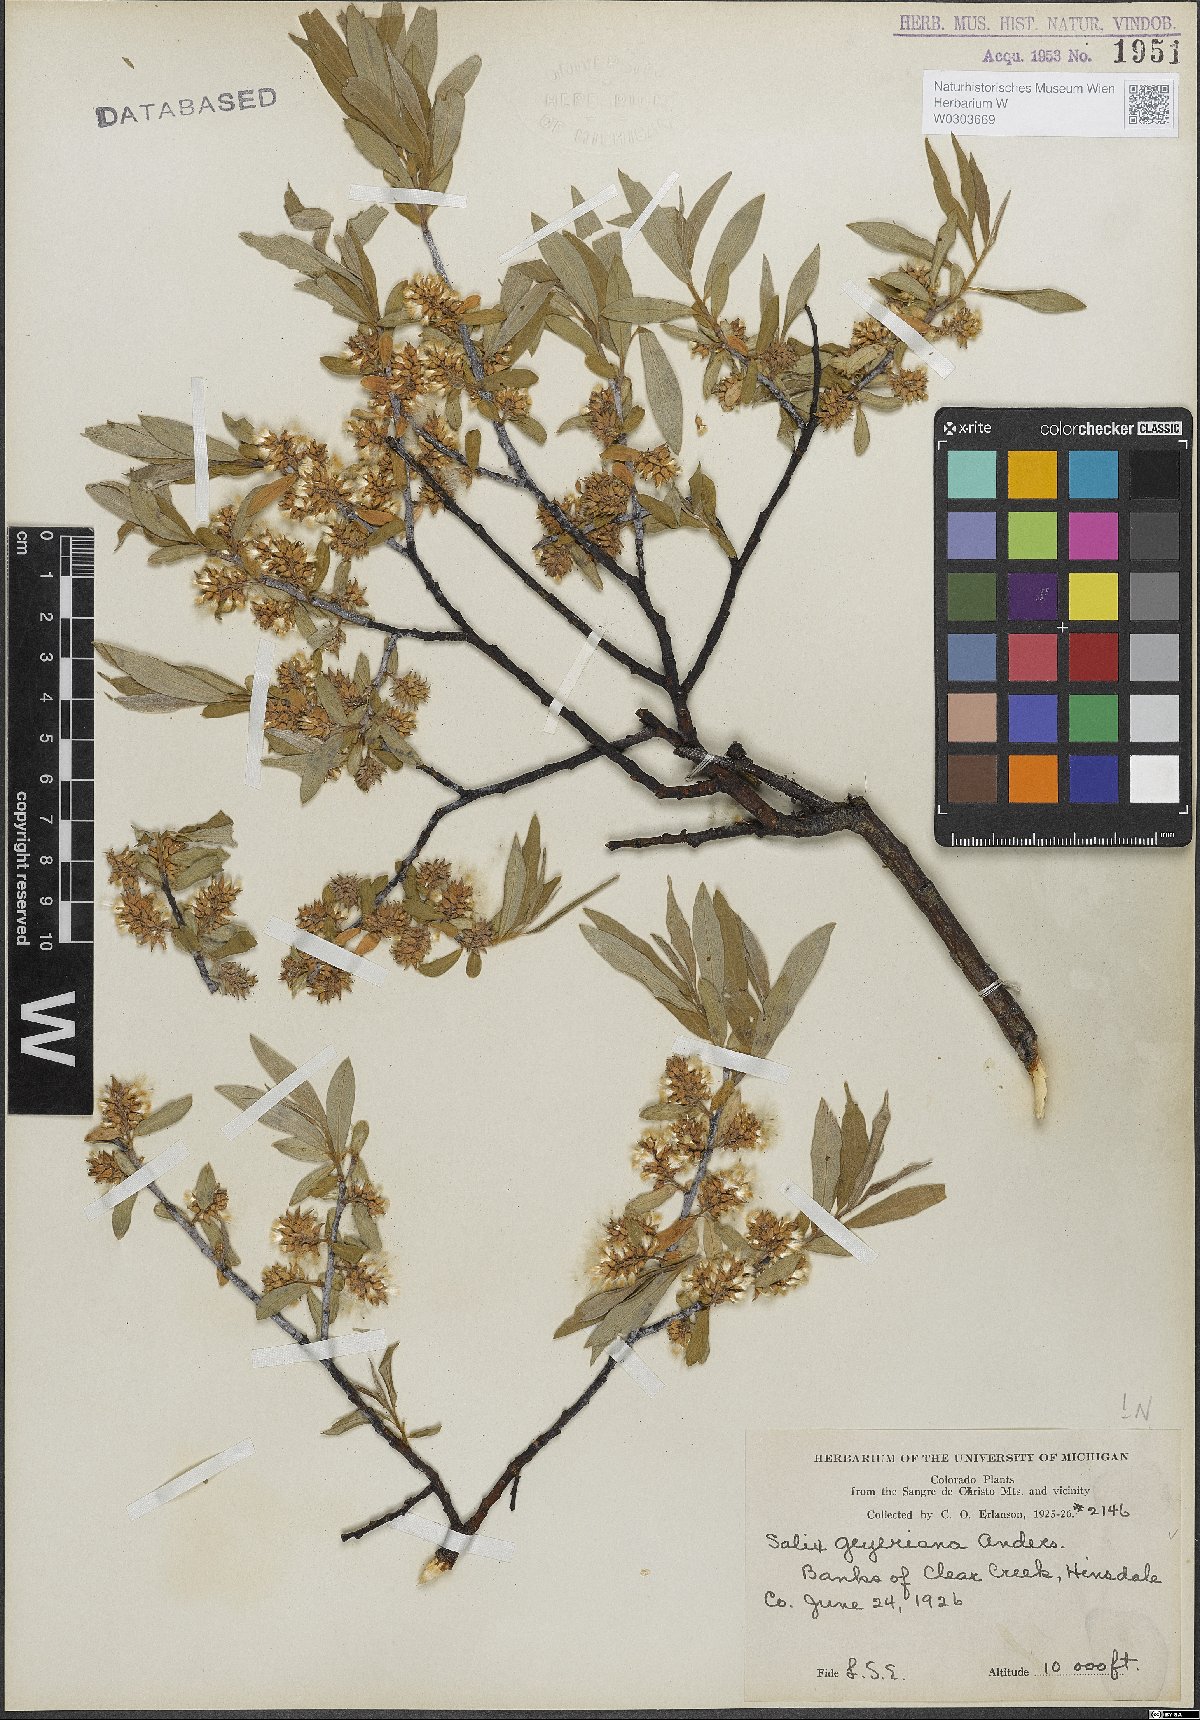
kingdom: Plantae
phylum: Tracheophyta
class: Magnoliopsida
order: Malpighiales
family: Salicaceae
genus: Salix
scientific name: Salix geyeriana
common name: Geyer's willow
